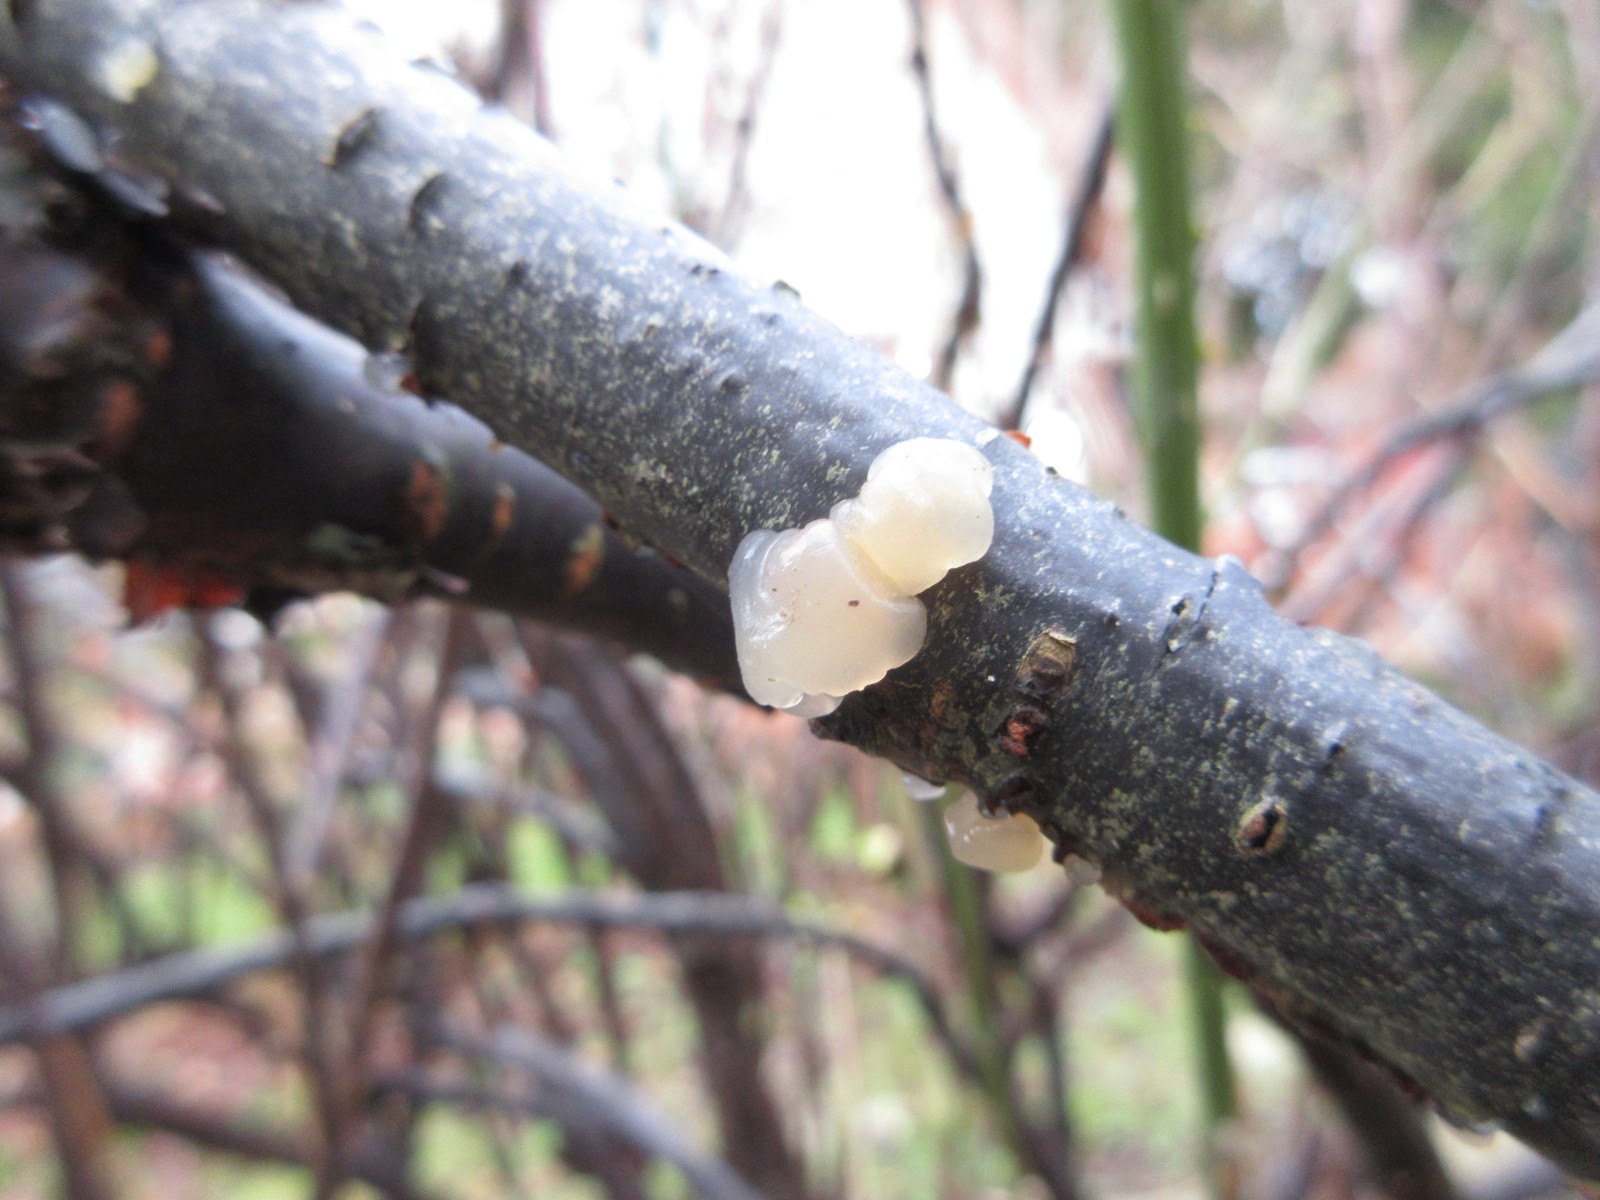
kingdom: Fungi
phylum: Basidiomycota
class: Agaricomycetes
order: Auriculariales
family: Hyaloriaceae
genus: Myxarium
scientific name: Myxarium nucleatum
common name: klar bævretop
